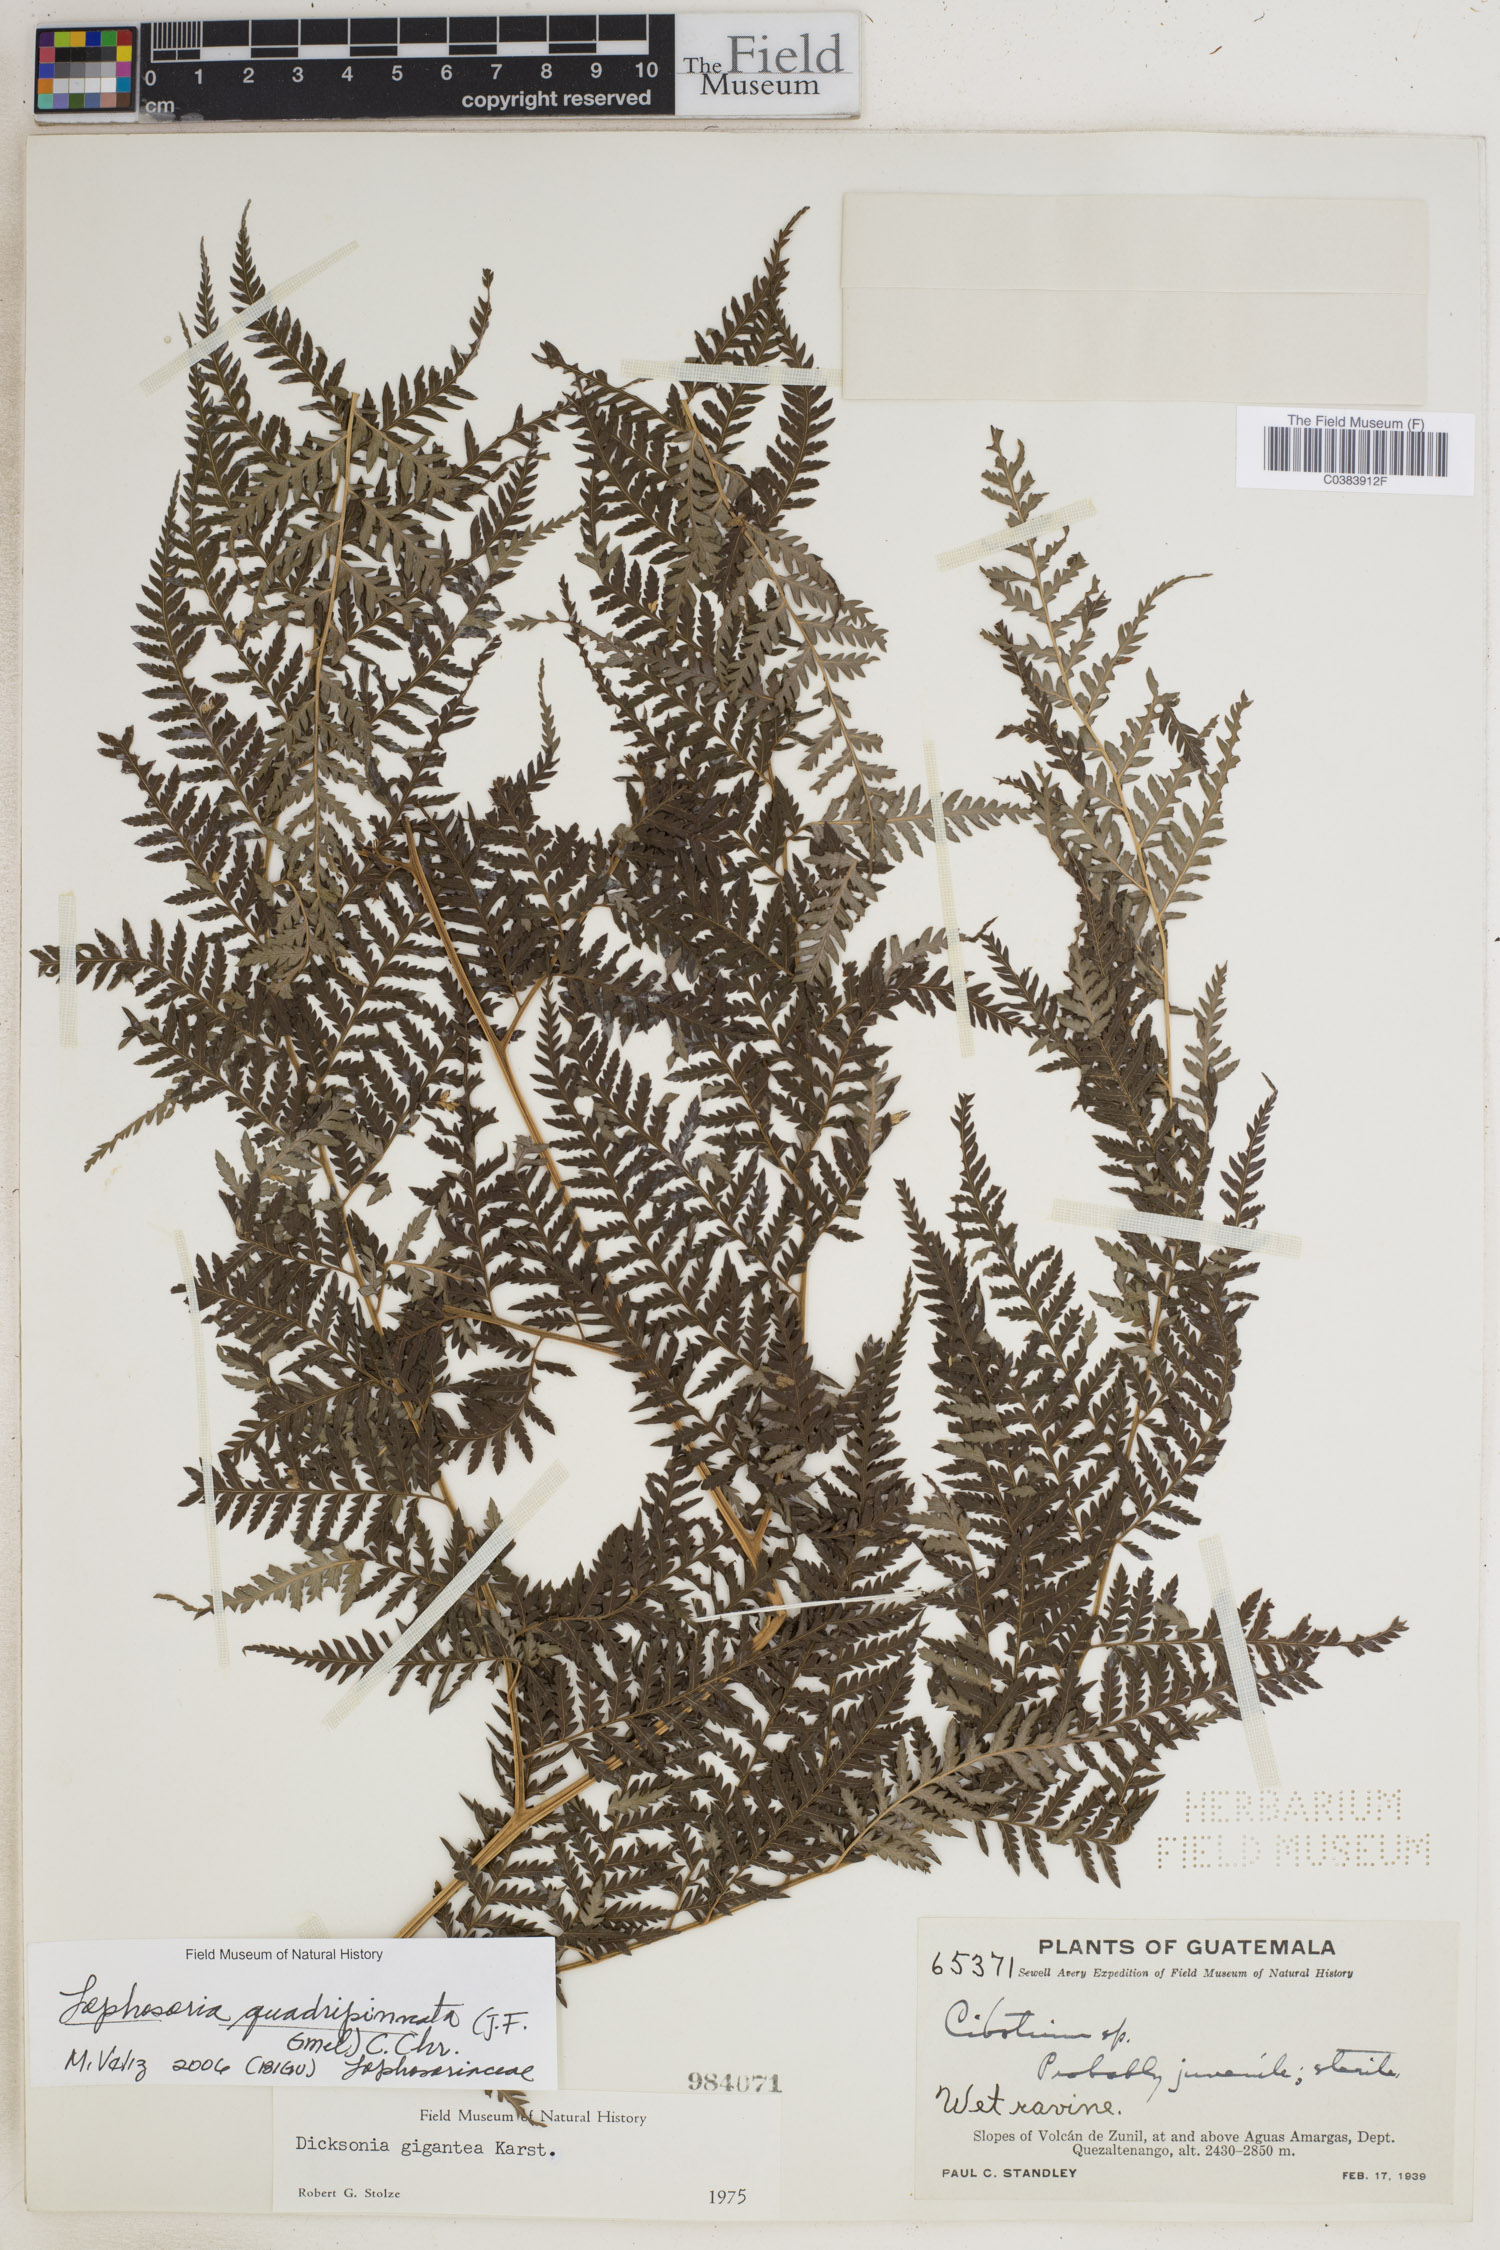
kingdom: Plantae
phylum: Tracheophyta
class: Polypodiopsida
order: Cyatheales
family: Dicksoniaceae
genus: Lophosoria
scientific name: Lophosoria quadripinnata
